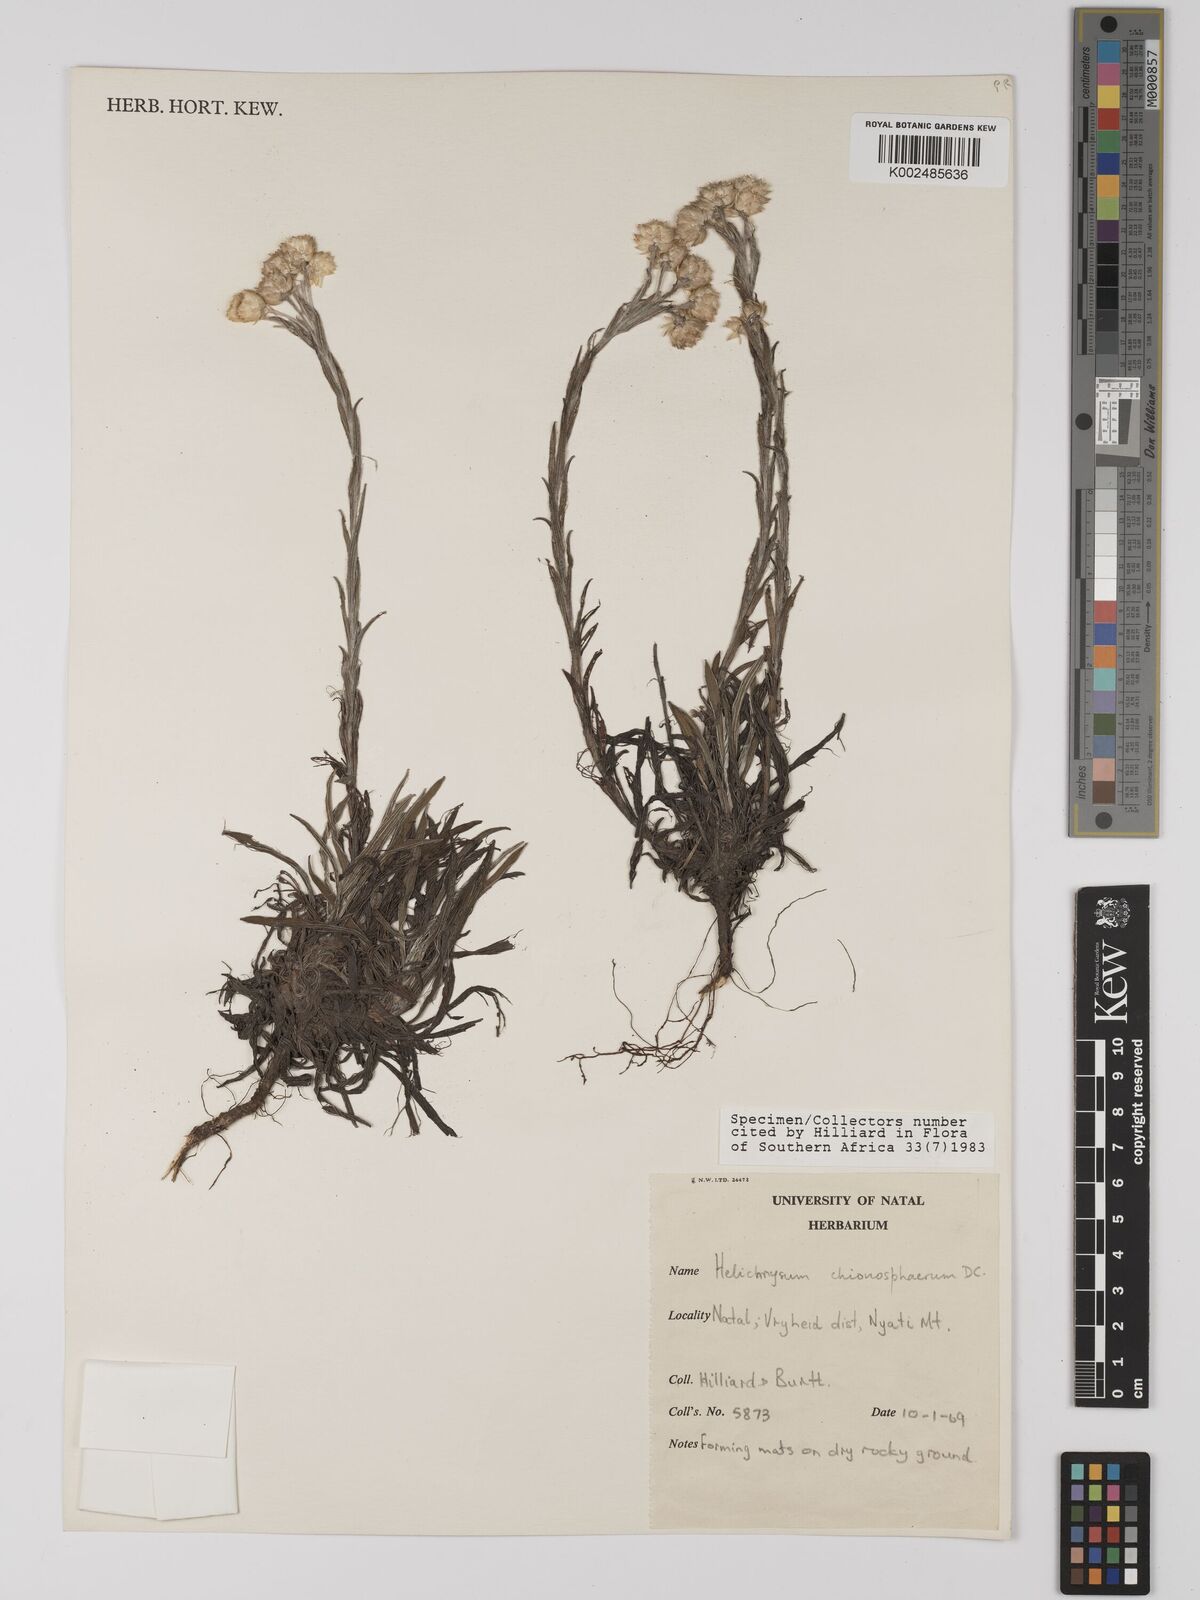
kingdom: Plantae
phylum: Tracheophyta
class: Magnoliopsida
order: Asterales
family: Asteraceae
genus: Helichrysum
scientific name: Helichrysum chionosphaerum
